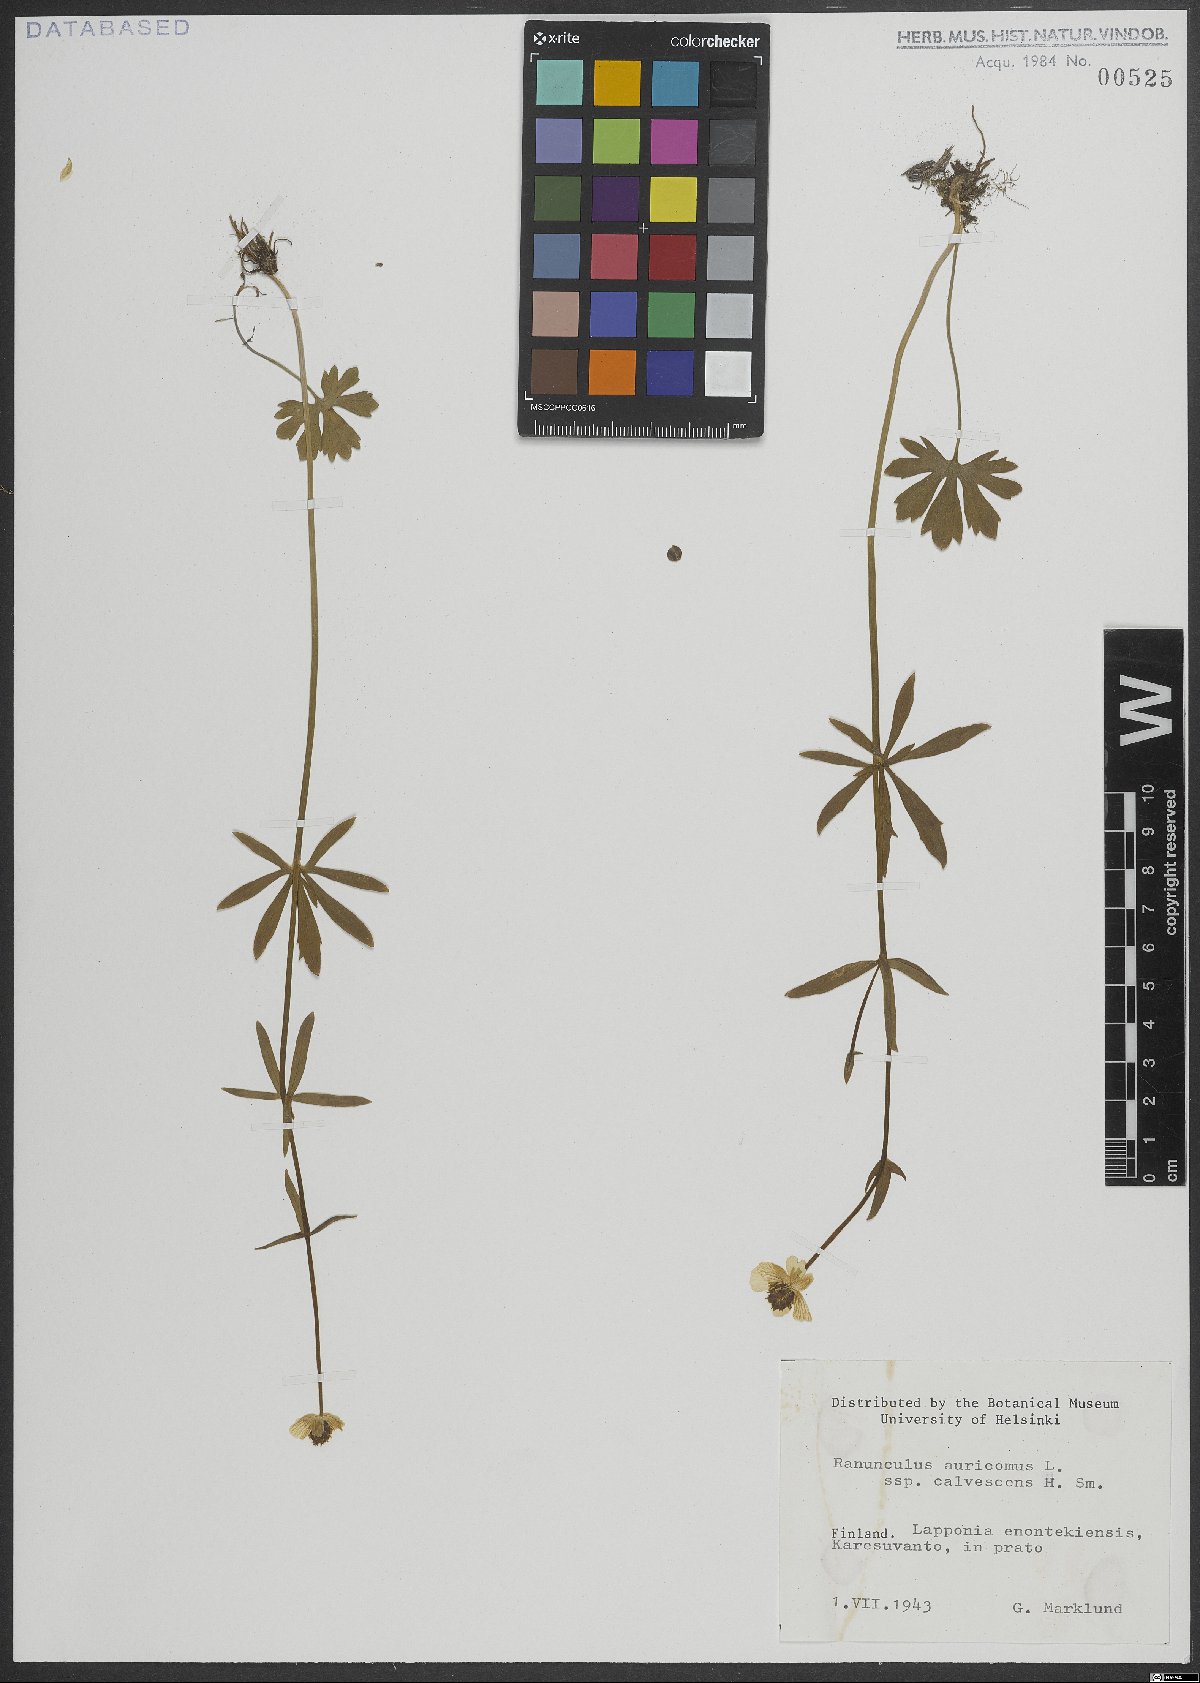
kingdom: Plantae
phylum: Tracheophyta
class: Magnoliopsida
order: Ranunculales
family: Ranunculaceae
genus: Ranunculus
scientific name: Ranunculus auricomus
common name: Goldilocks buttercup
